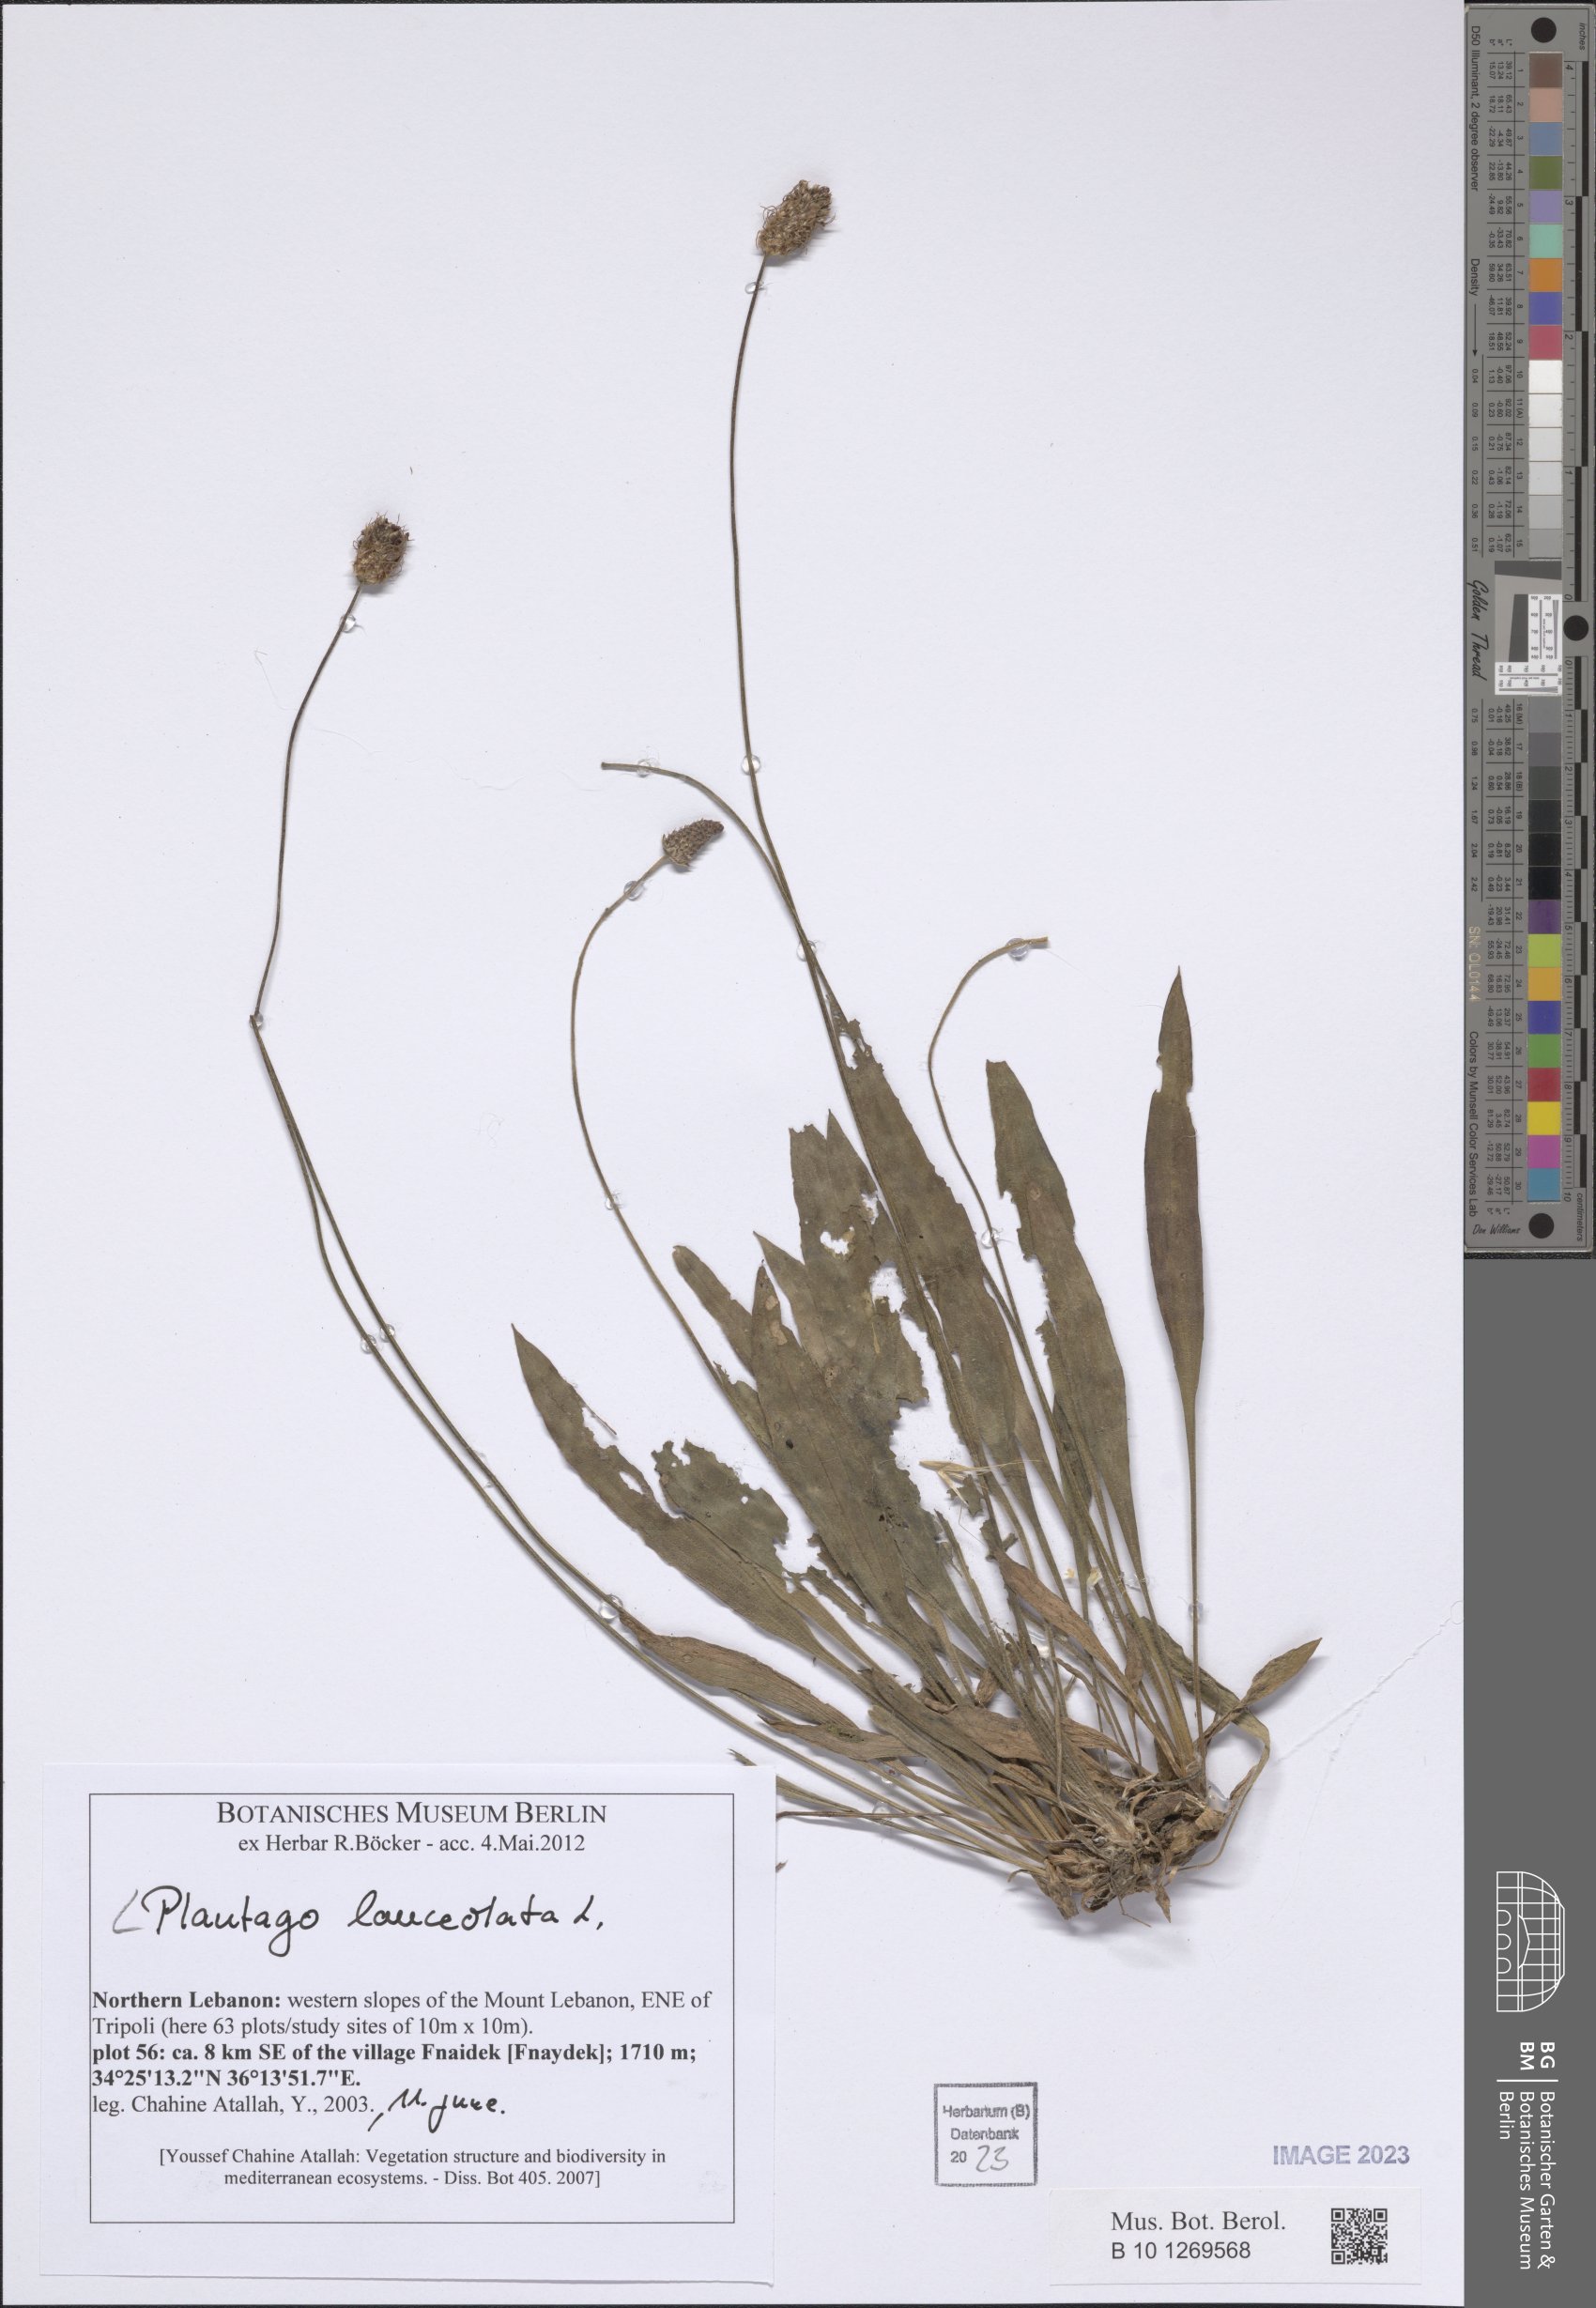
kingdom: Plantae
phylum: Tracheophyta
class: Magnoliopsida
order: Lamiales
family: Plantaginaceae
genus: Plantago
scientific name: Plantago lanceolata
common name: Ribwort plantain
